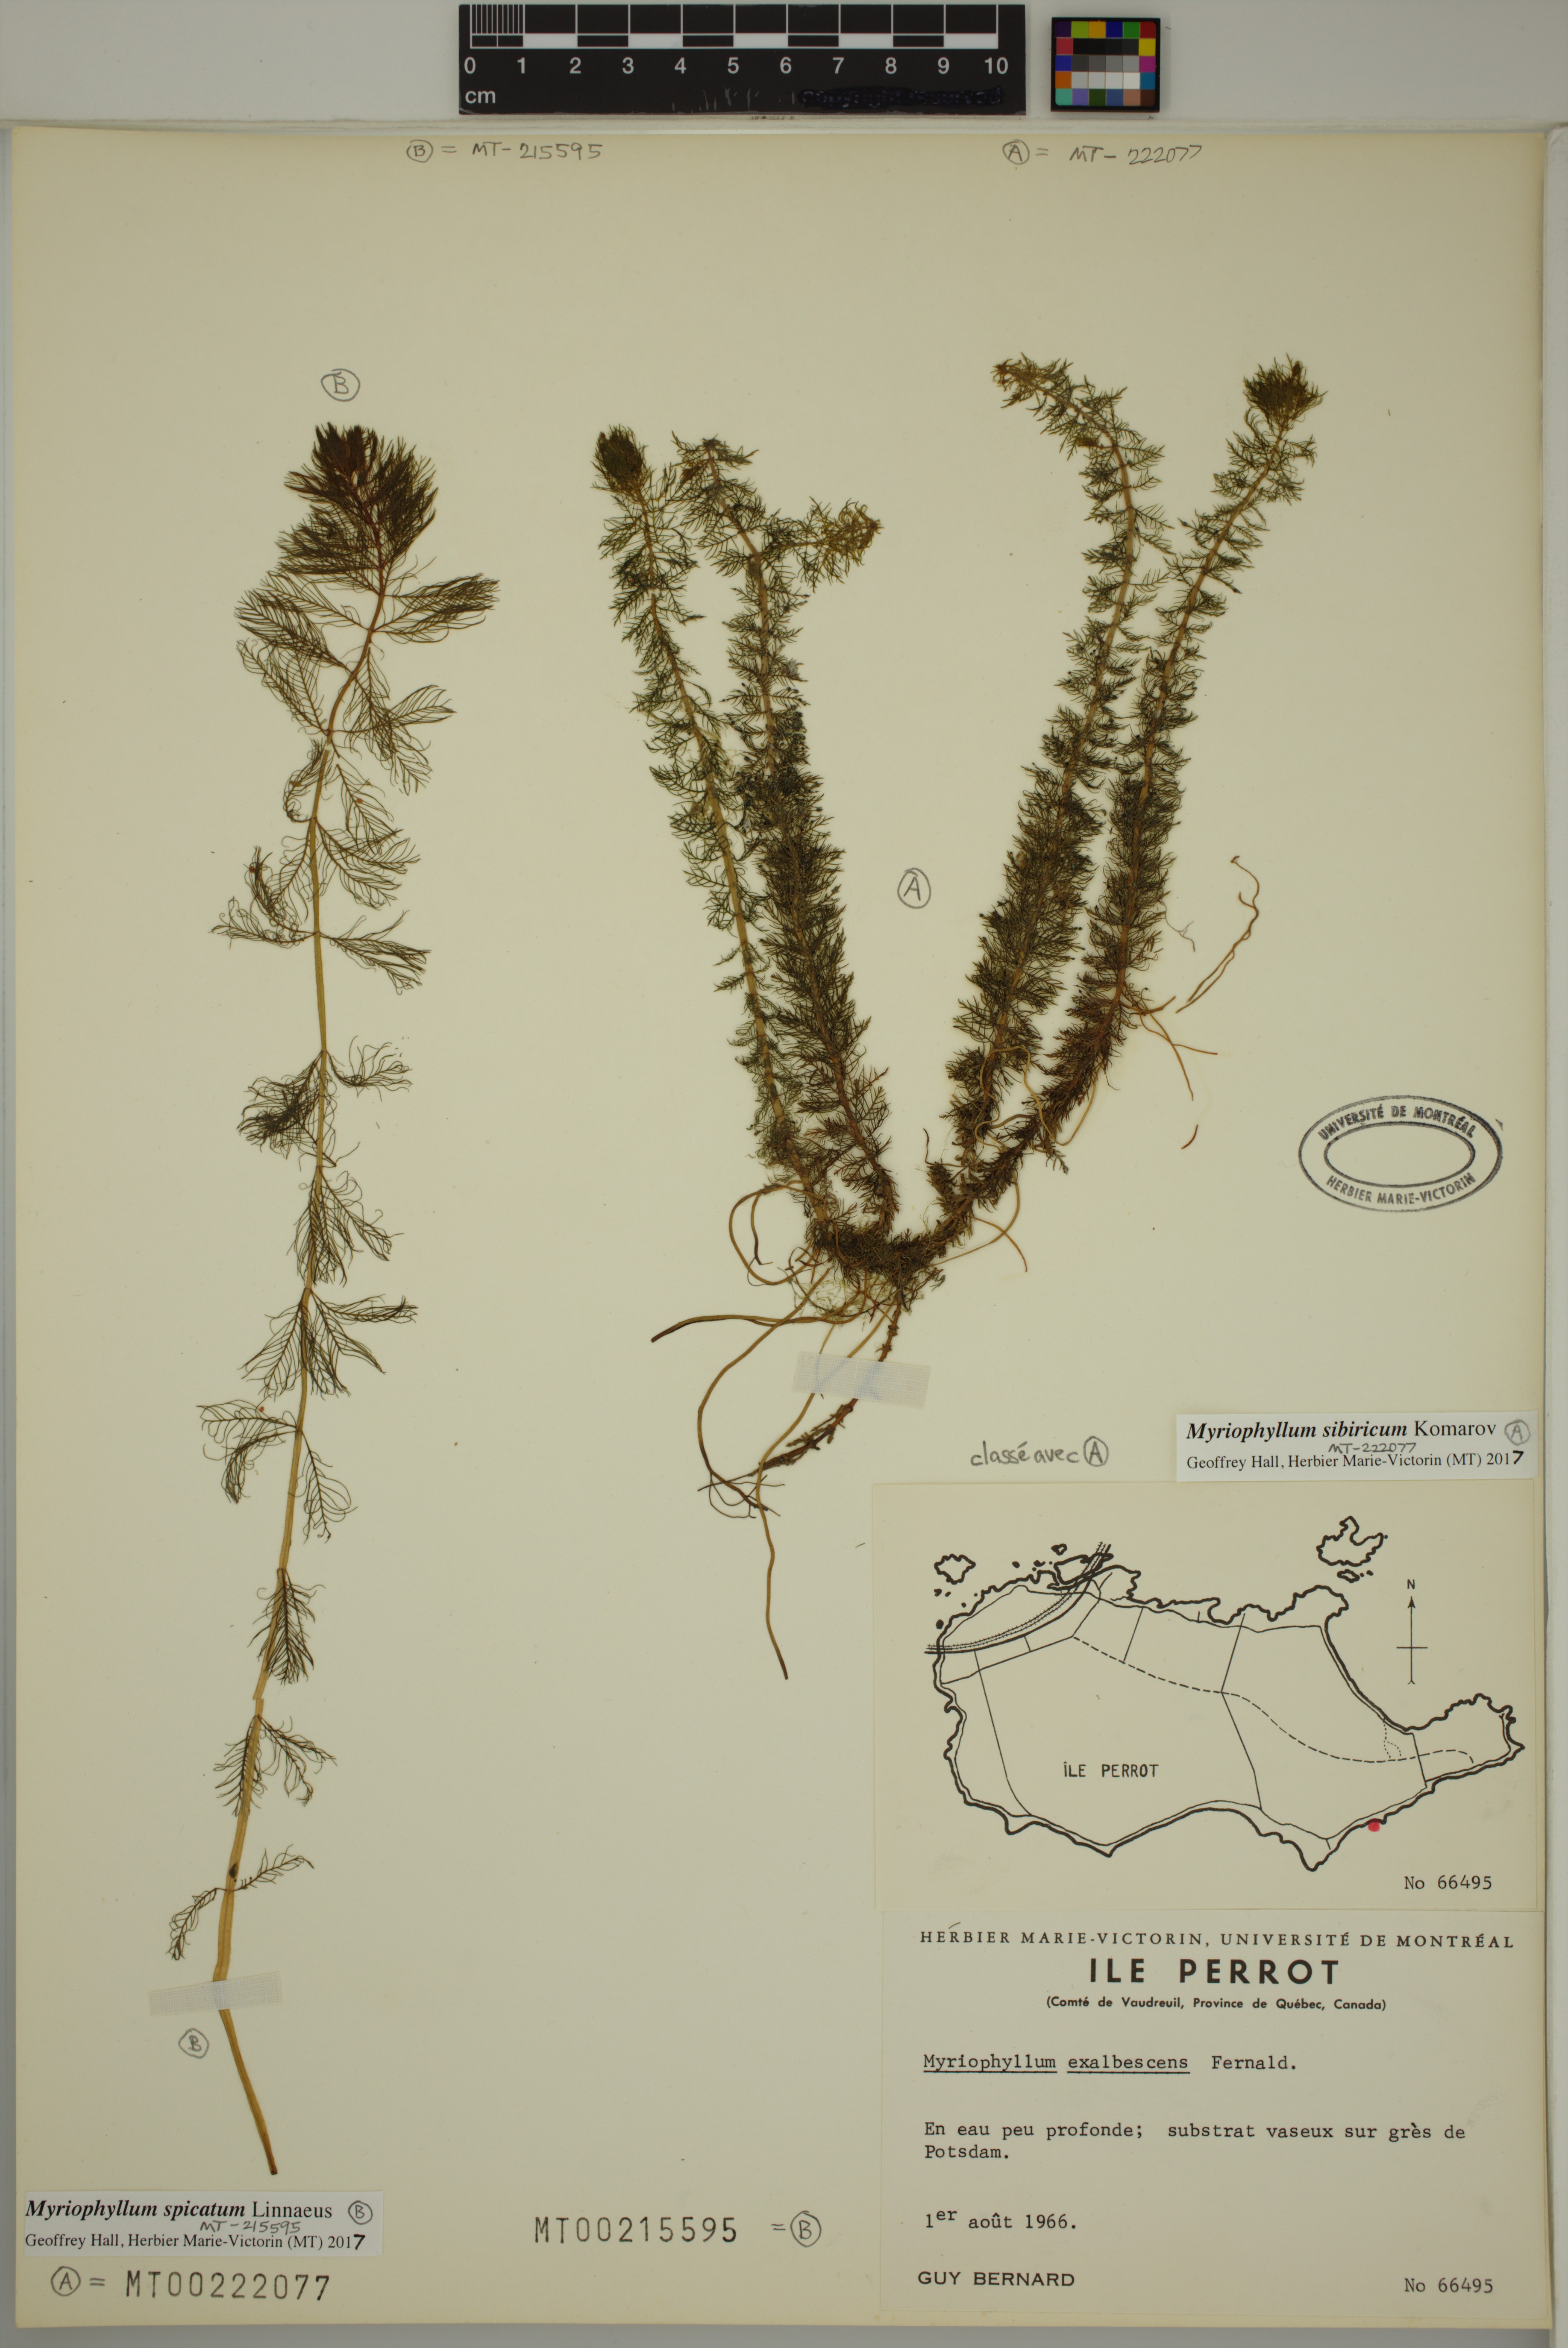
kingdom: Plantae
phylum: Tracheophyta
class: Magnoliopsida
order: Saxifragales
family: Haloragaceae
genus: Myriophyllum
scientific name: Myriophyllum spicatum
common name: Spiked water-milfoil
